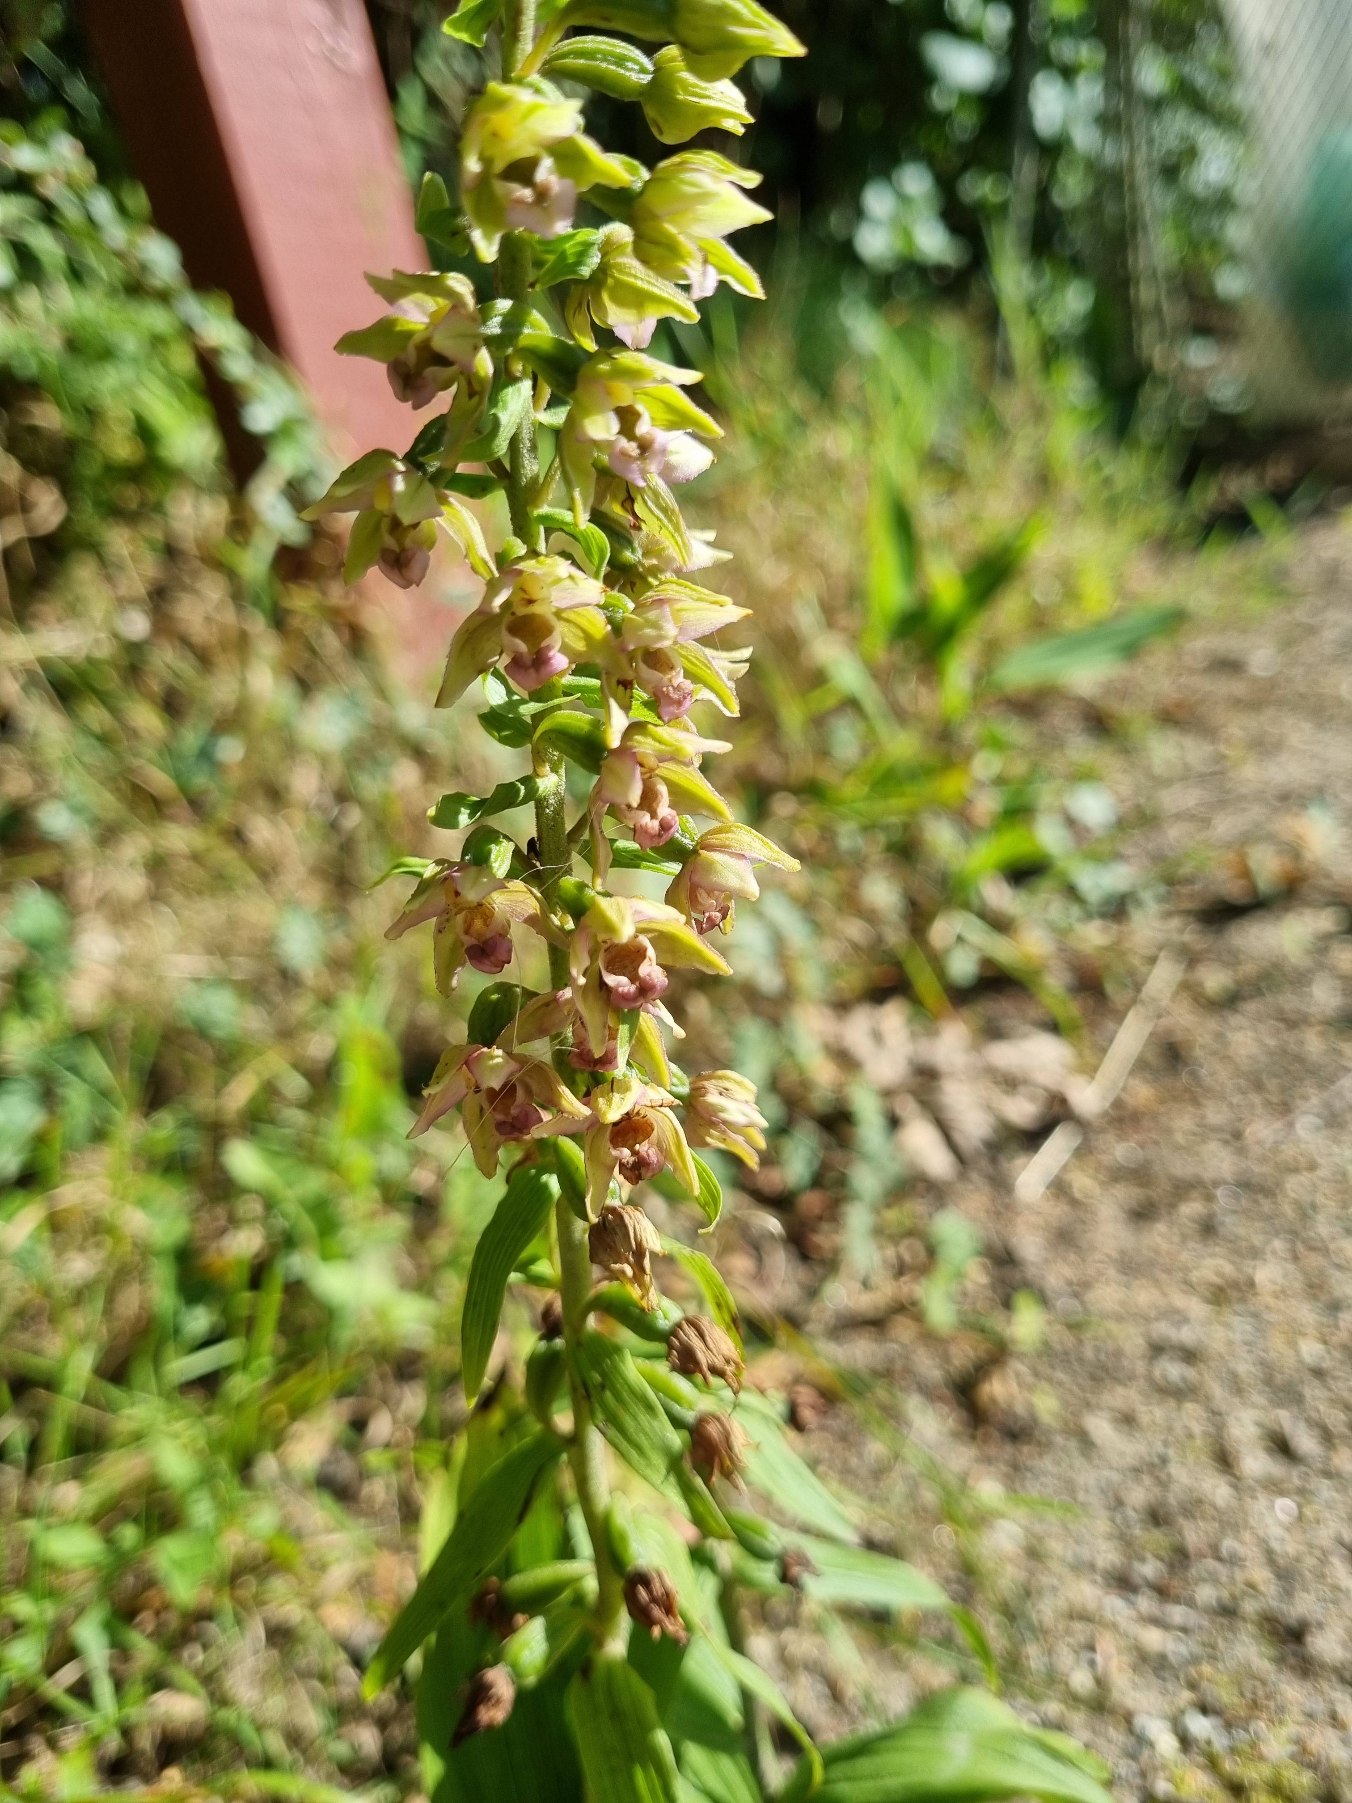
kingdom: Plantae
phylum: Tracheophyta
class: Liliopsida
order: Asparagales
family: Orchidaceae
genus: Epipactis
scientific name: Epipactis helleborine
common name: Skov-hullæbe (underart)
